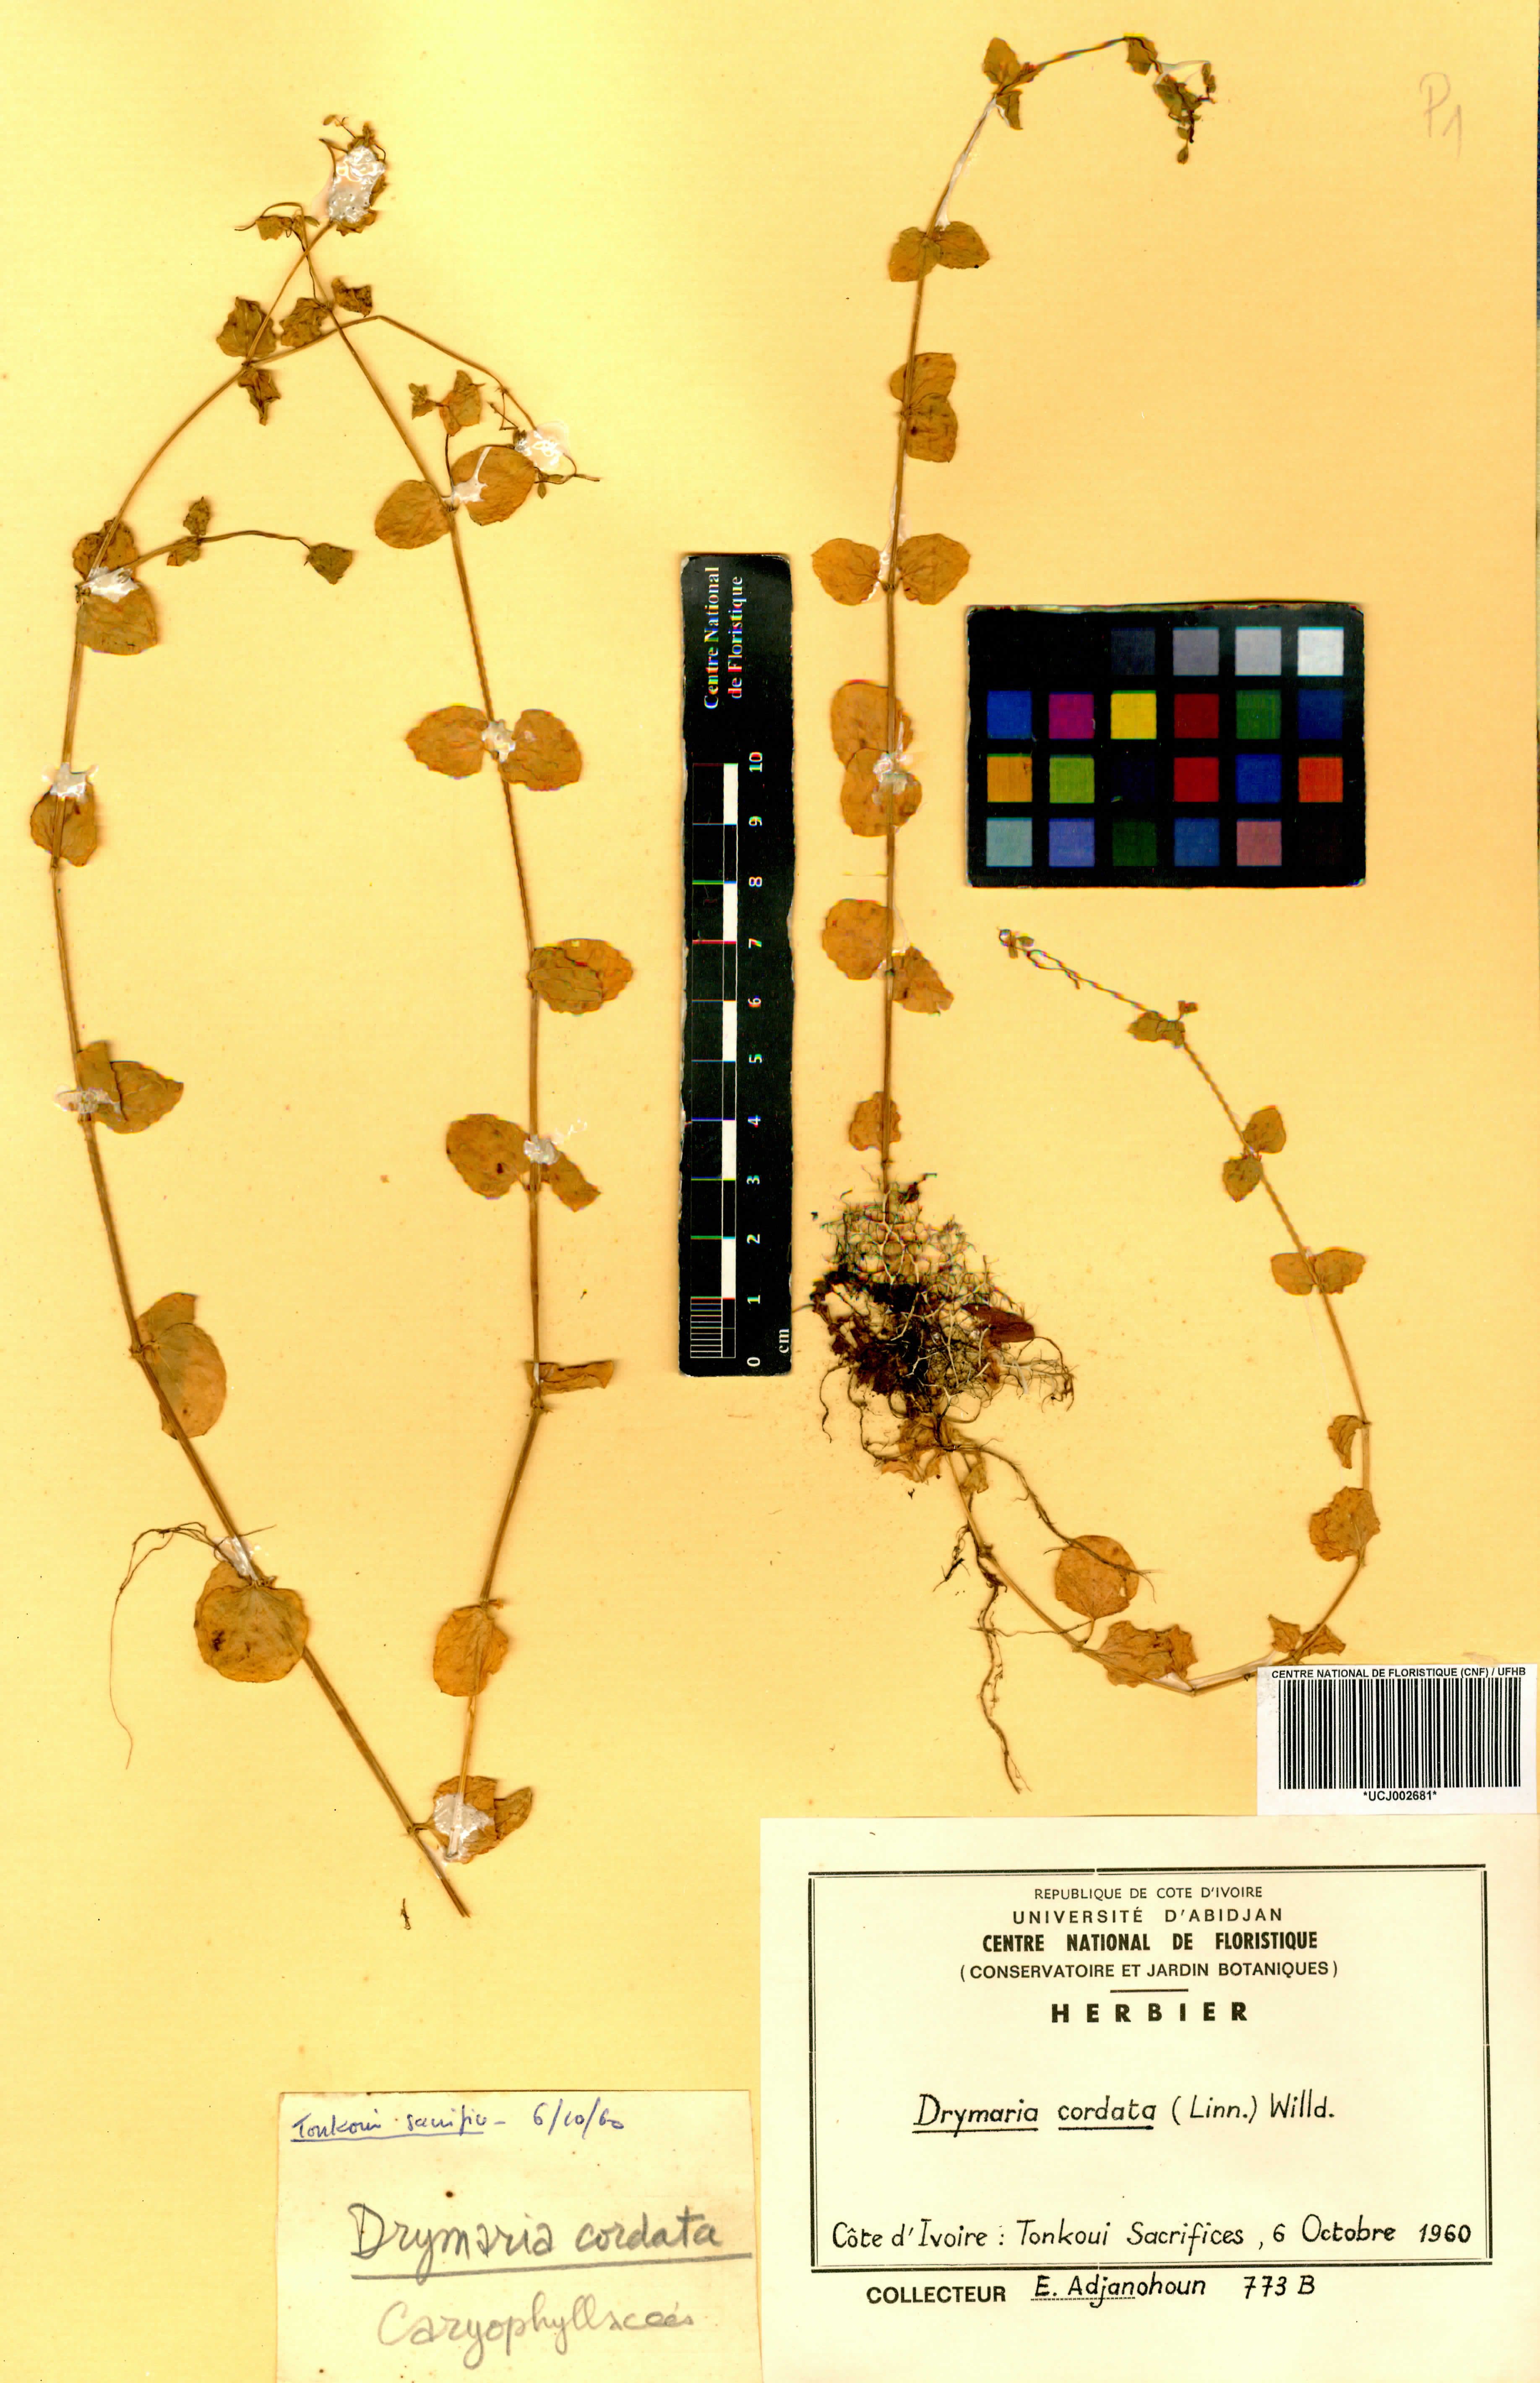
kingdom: Plantae
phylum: Tracheophyta
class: Magnoliopsida
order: Caryophyllales
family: Caryophyllaceae
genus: Drymaria
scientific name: Drymaria cordata
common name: Whitesnow
